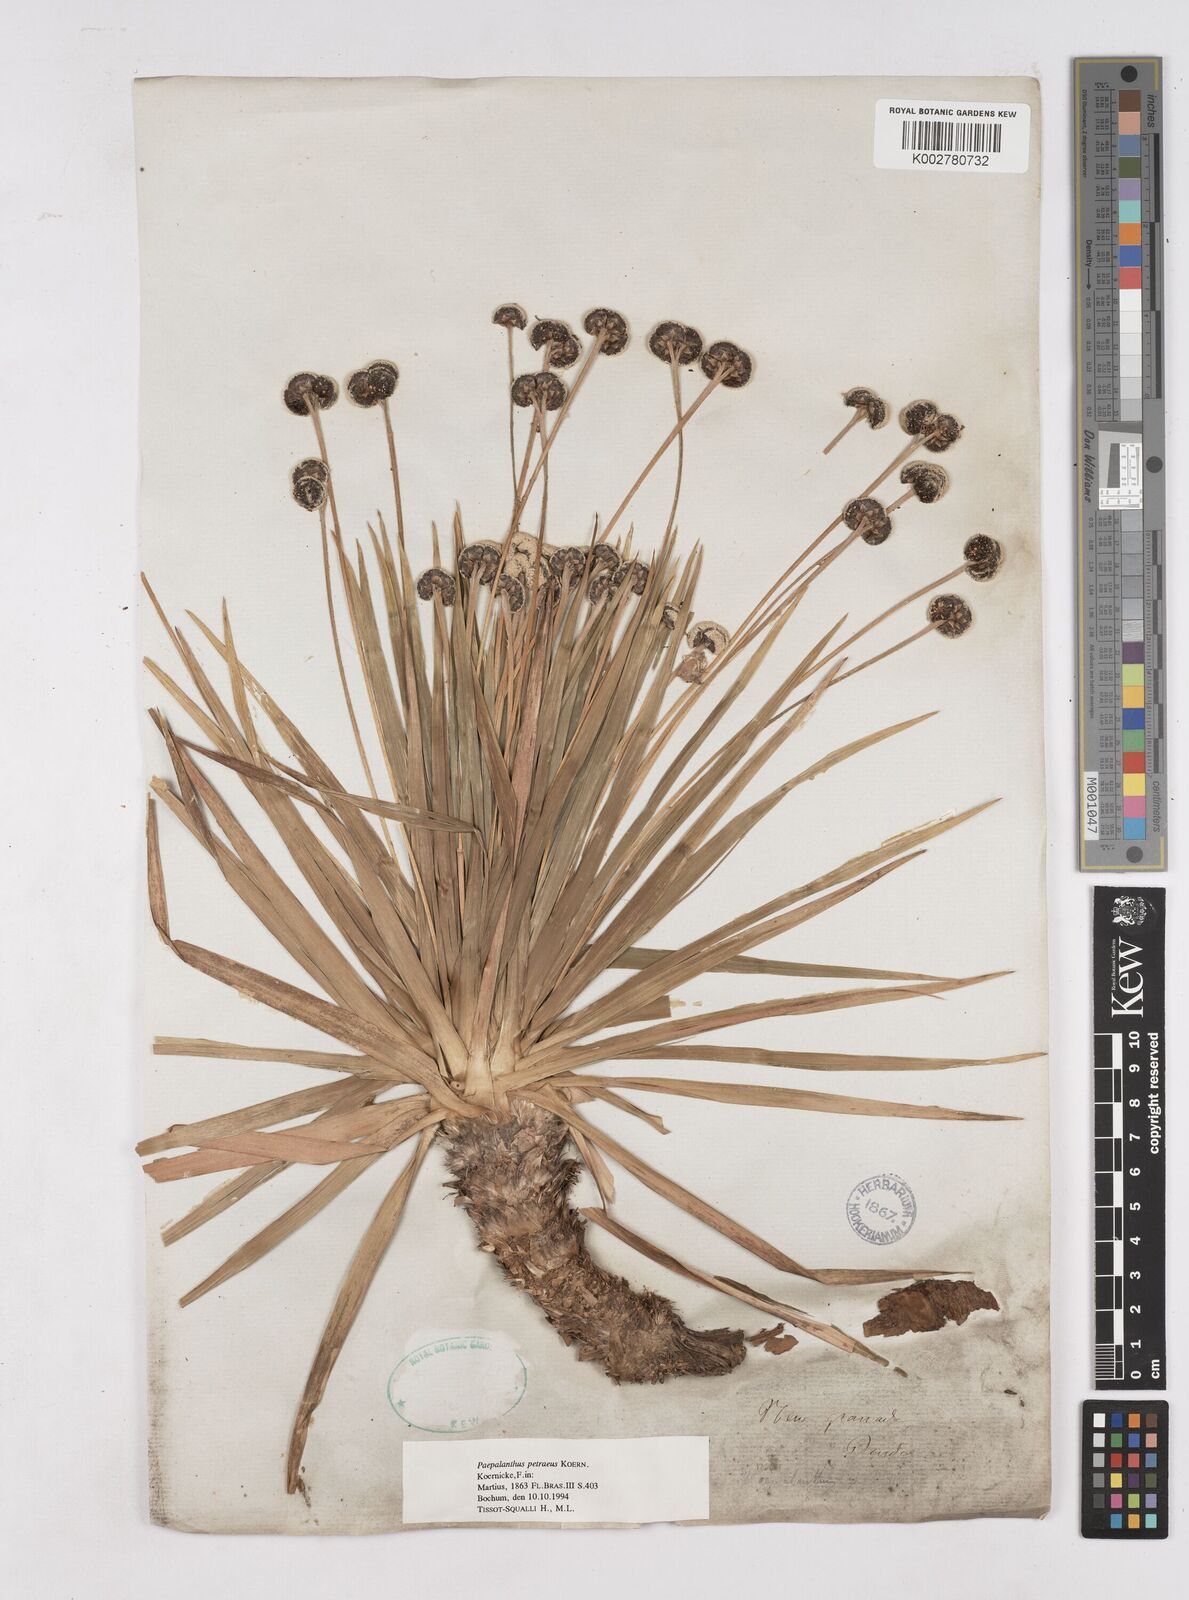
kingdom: Plantae
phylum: Tracheophyta
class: Liliopsida
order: Poales
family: Eriocaulaceae
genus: Paepalanthus
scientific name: Paepalanthus petraeus
